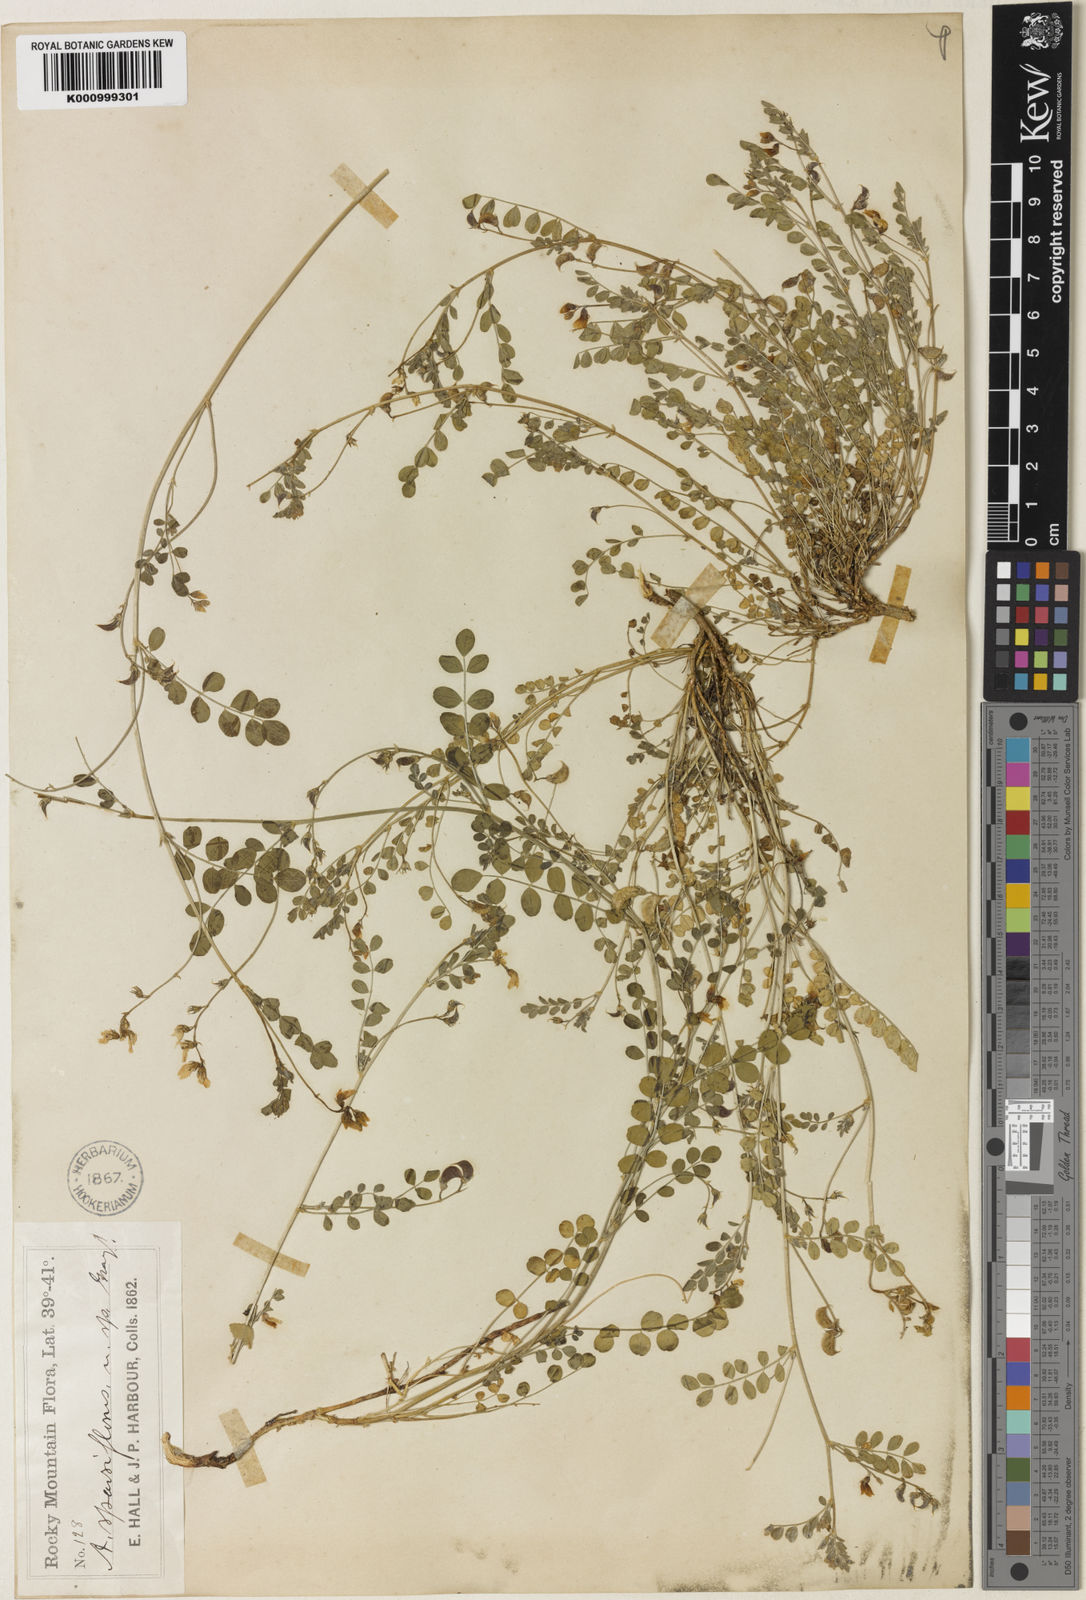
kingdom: Plantae
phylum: Tracheophyta
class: Magnoliopsida
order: Fabales
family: Fabaceae
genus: Astragalus
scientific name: Astragalus sparsiflorus
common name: Front range milkvetch
